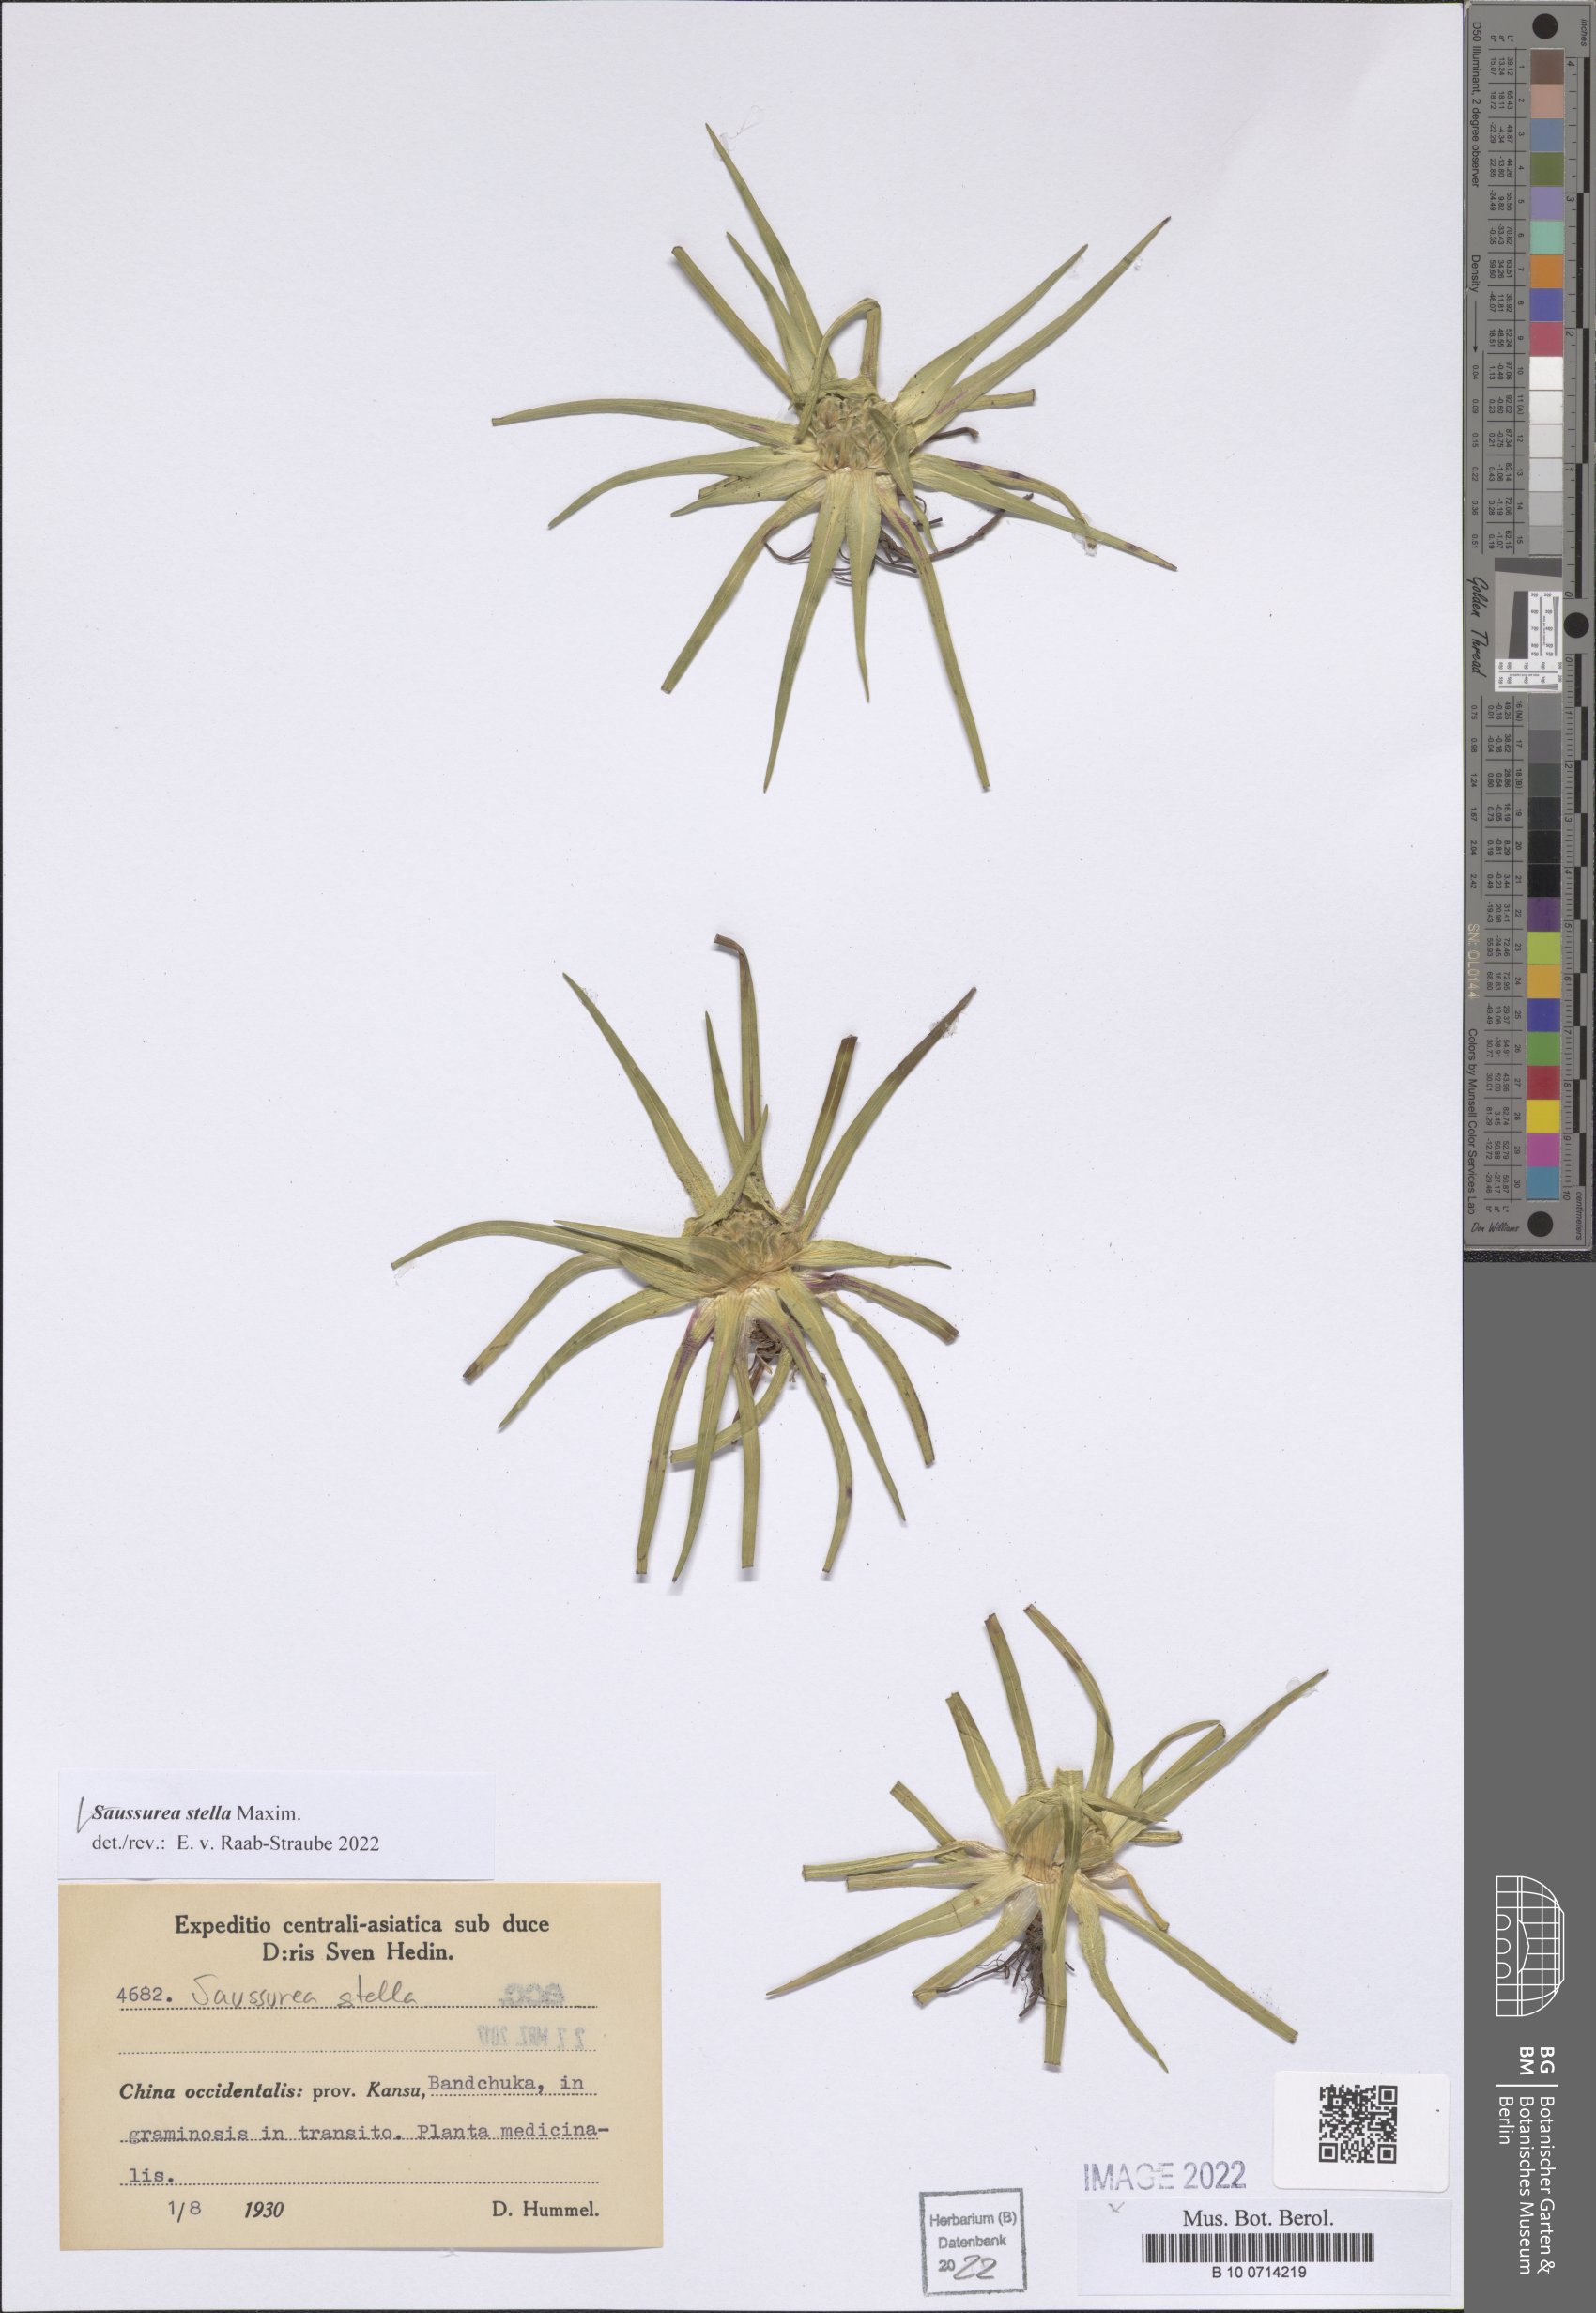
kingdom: Plantae
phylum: Tracheophyta
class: Magnoliopsida
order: Asterales
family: Asteraceae
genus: Saussurea
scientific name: Saussurea stella
